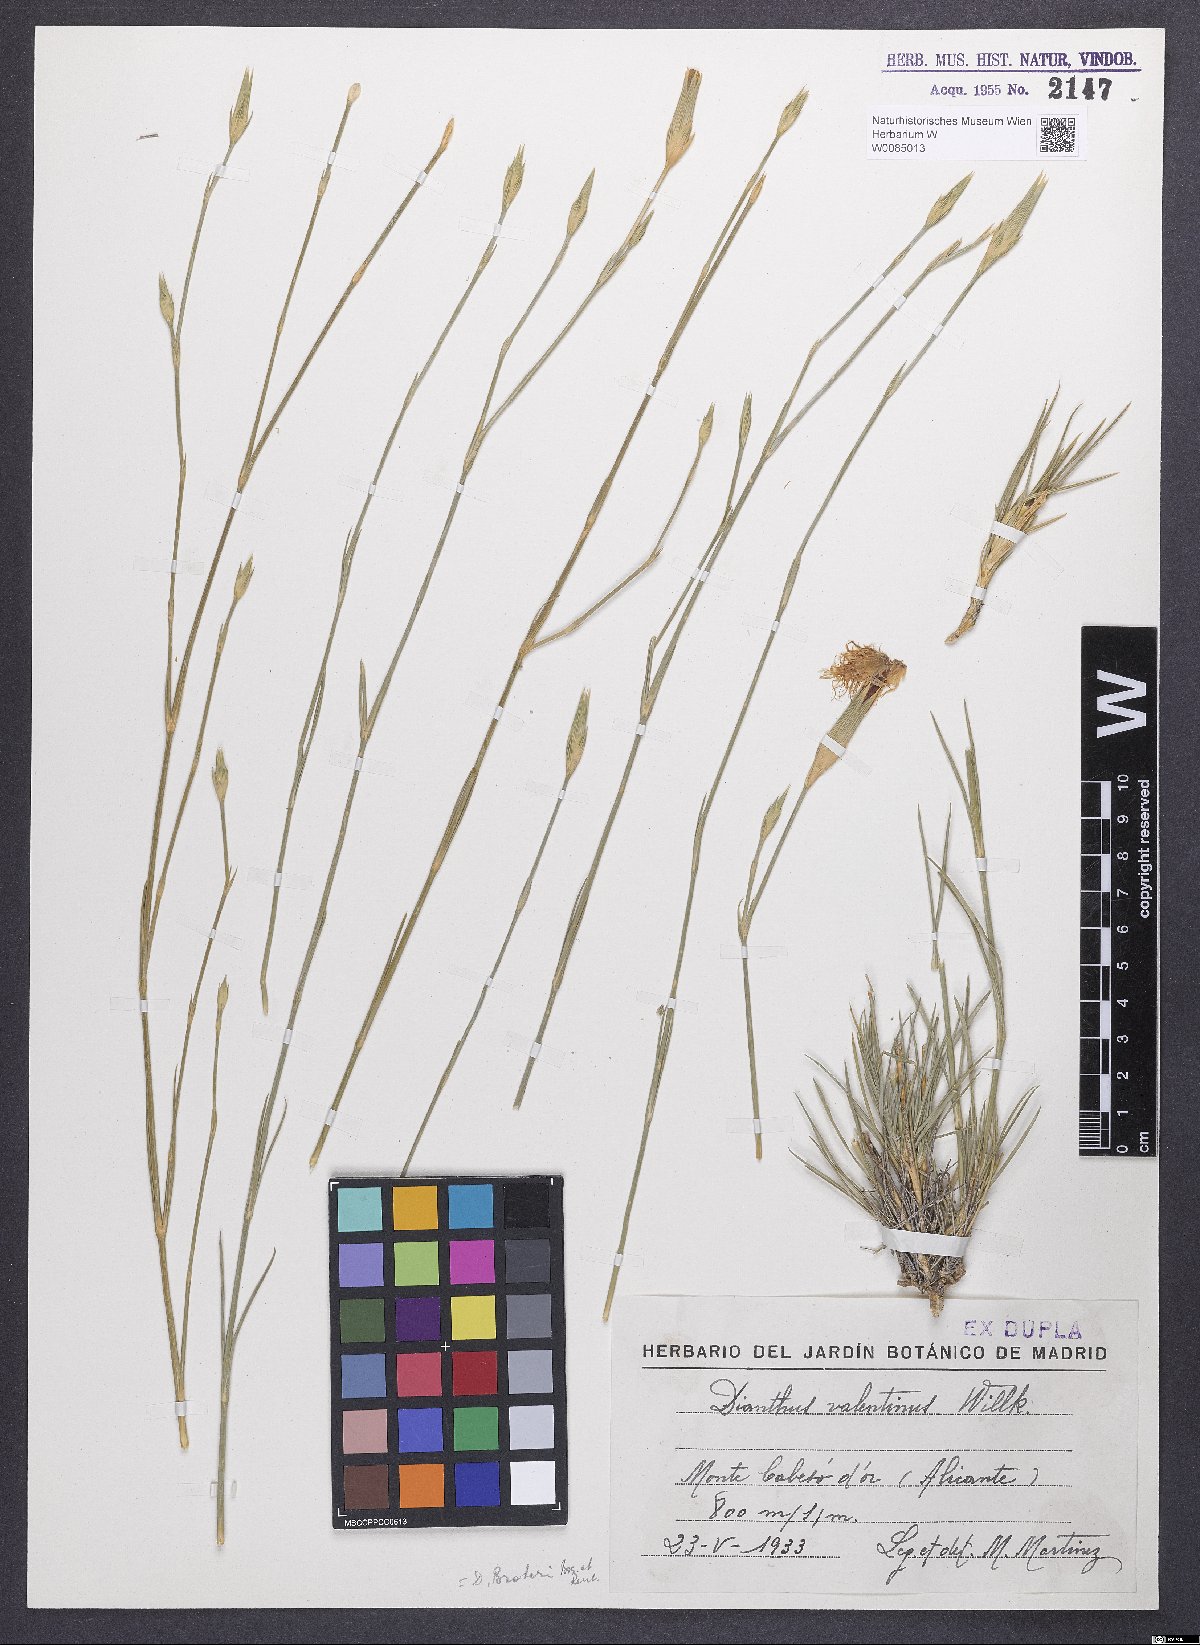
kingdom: Plantae
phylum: Tracheophyta
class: Magnoliopsida
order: Caryophyllales
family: Caryophyllaceae
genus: Dianthus
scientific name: Dianthus broteri
